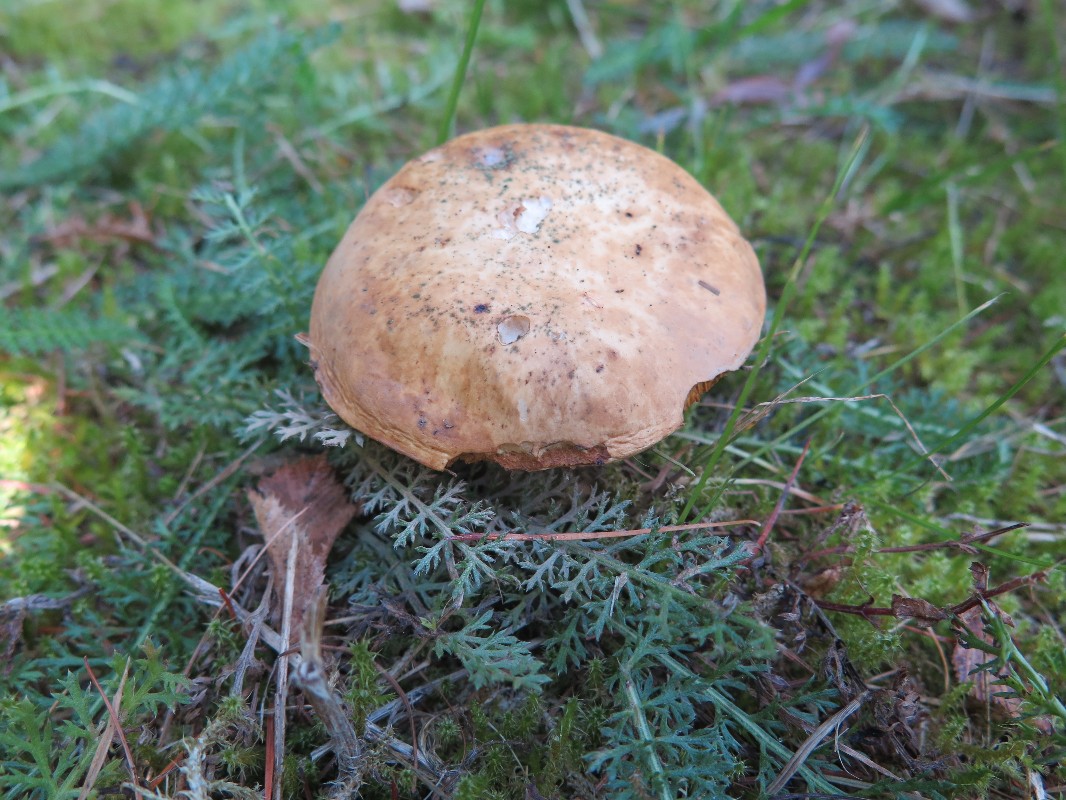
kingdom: Fungi
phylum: Basidiomycota
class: Agaricomycetes
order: Boletales
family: Suillaceae
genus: Suillus
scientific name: Suillus viscidus
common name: olivengrå slimrørhat
